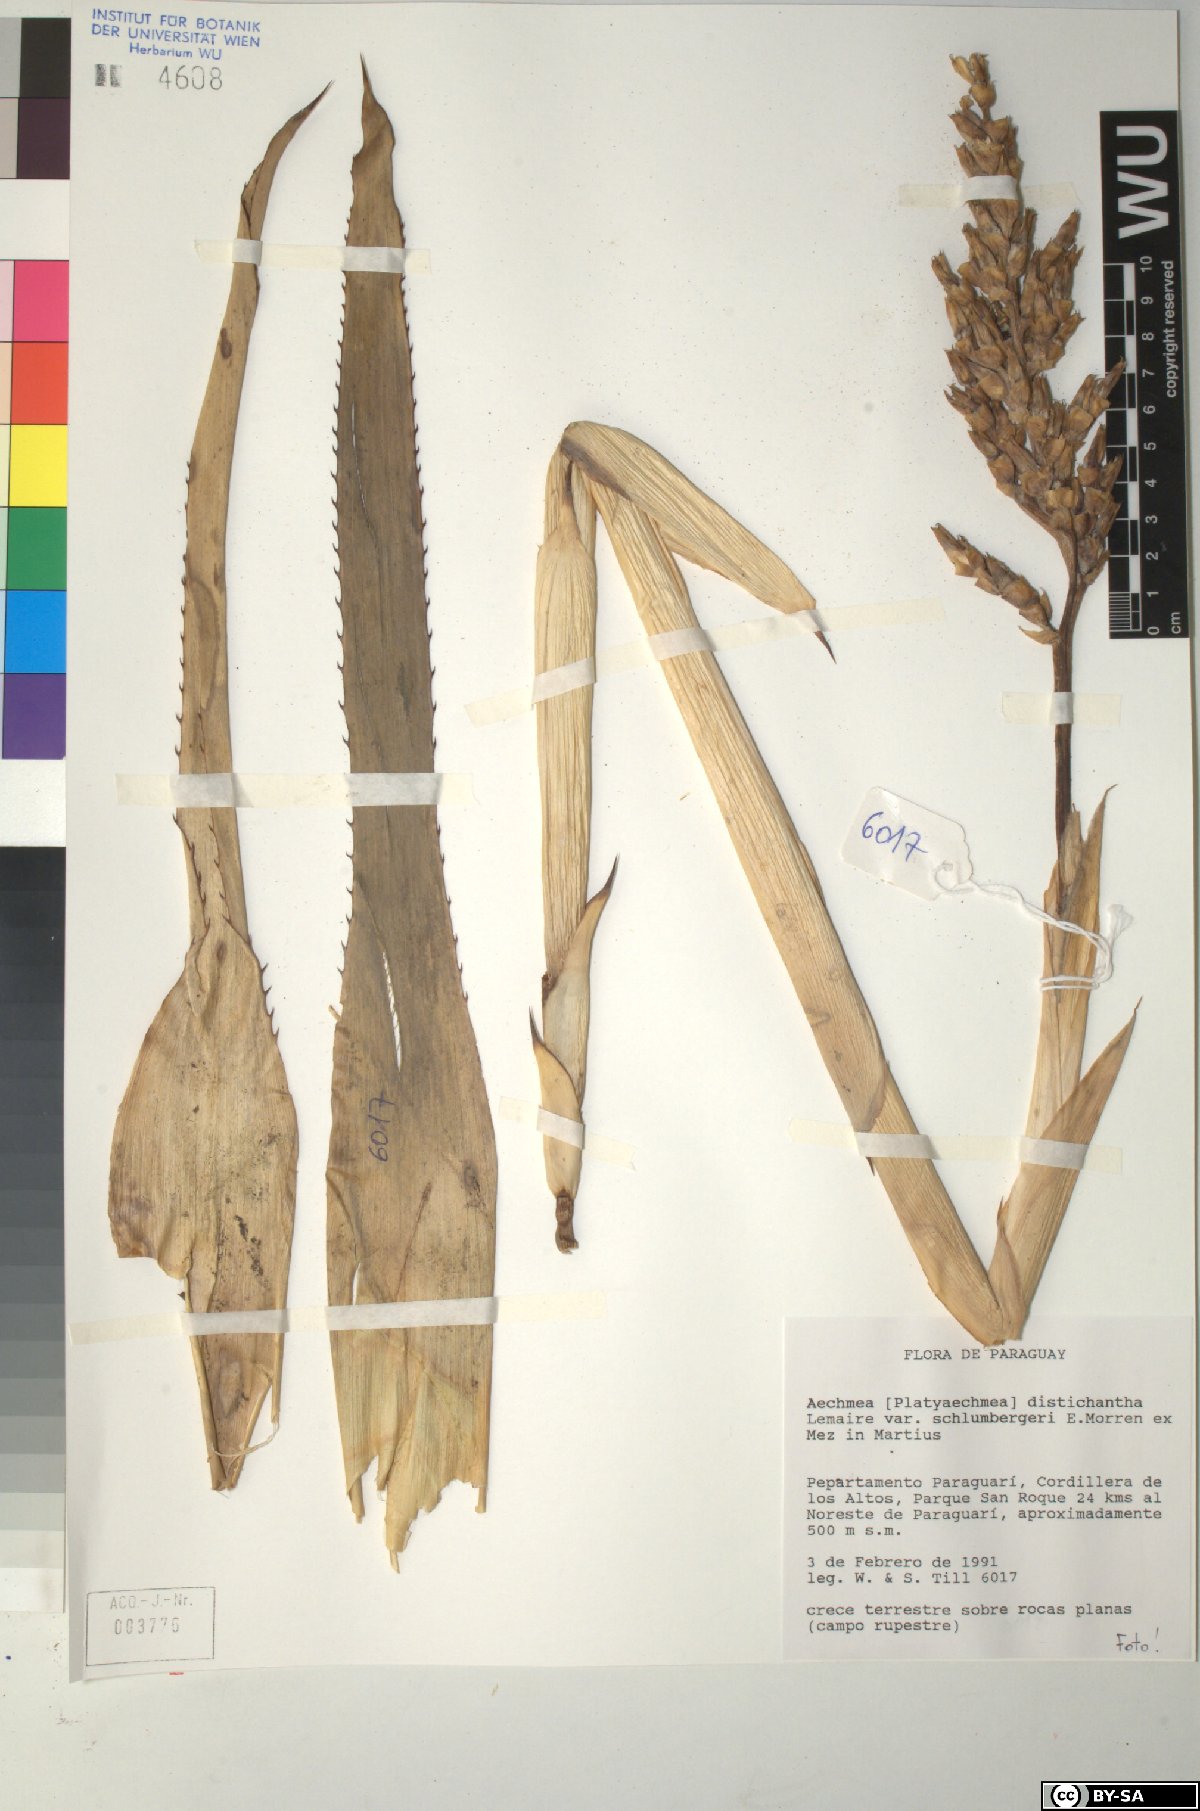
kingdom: Plantae
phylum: Tracheophyta
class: Liliopsida
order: Poales
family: Bromeliaceae
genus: Aechmea
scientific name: Aechmea distichantha
